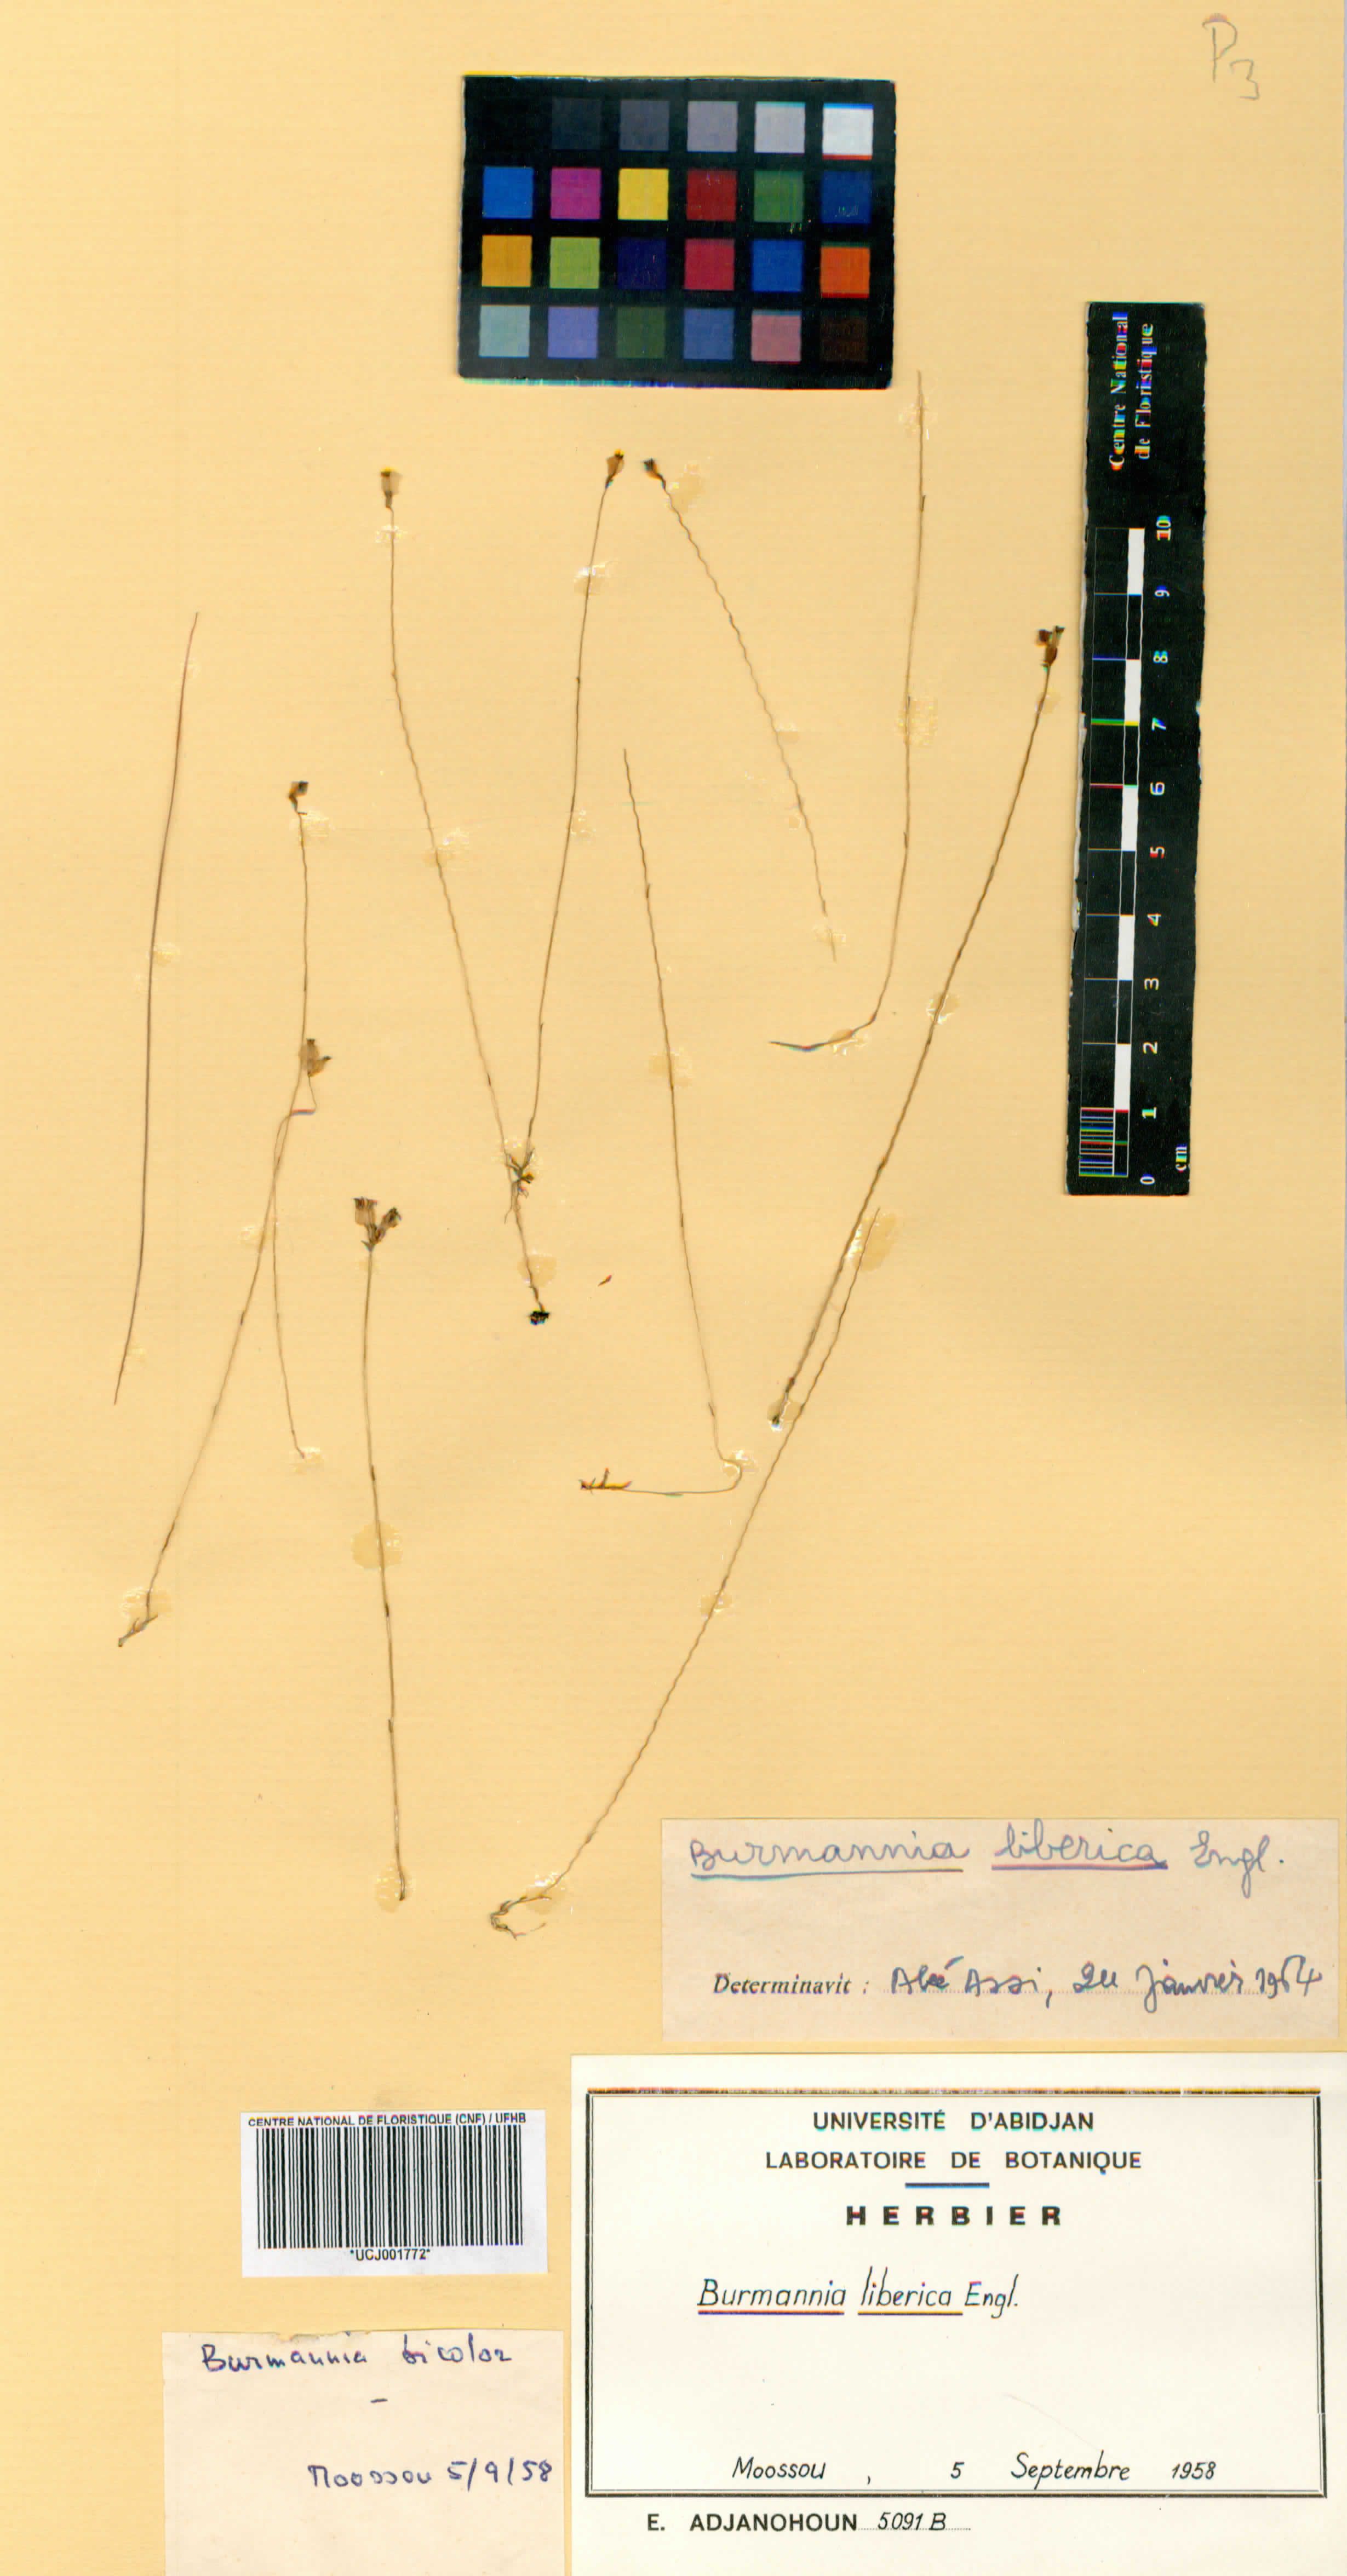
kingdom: Plantae
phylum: Tracheophyta
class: Liliopsida
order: Dioscoreales
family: Burmanniaceae
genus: Burmannia
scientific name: Burmannia latialata
